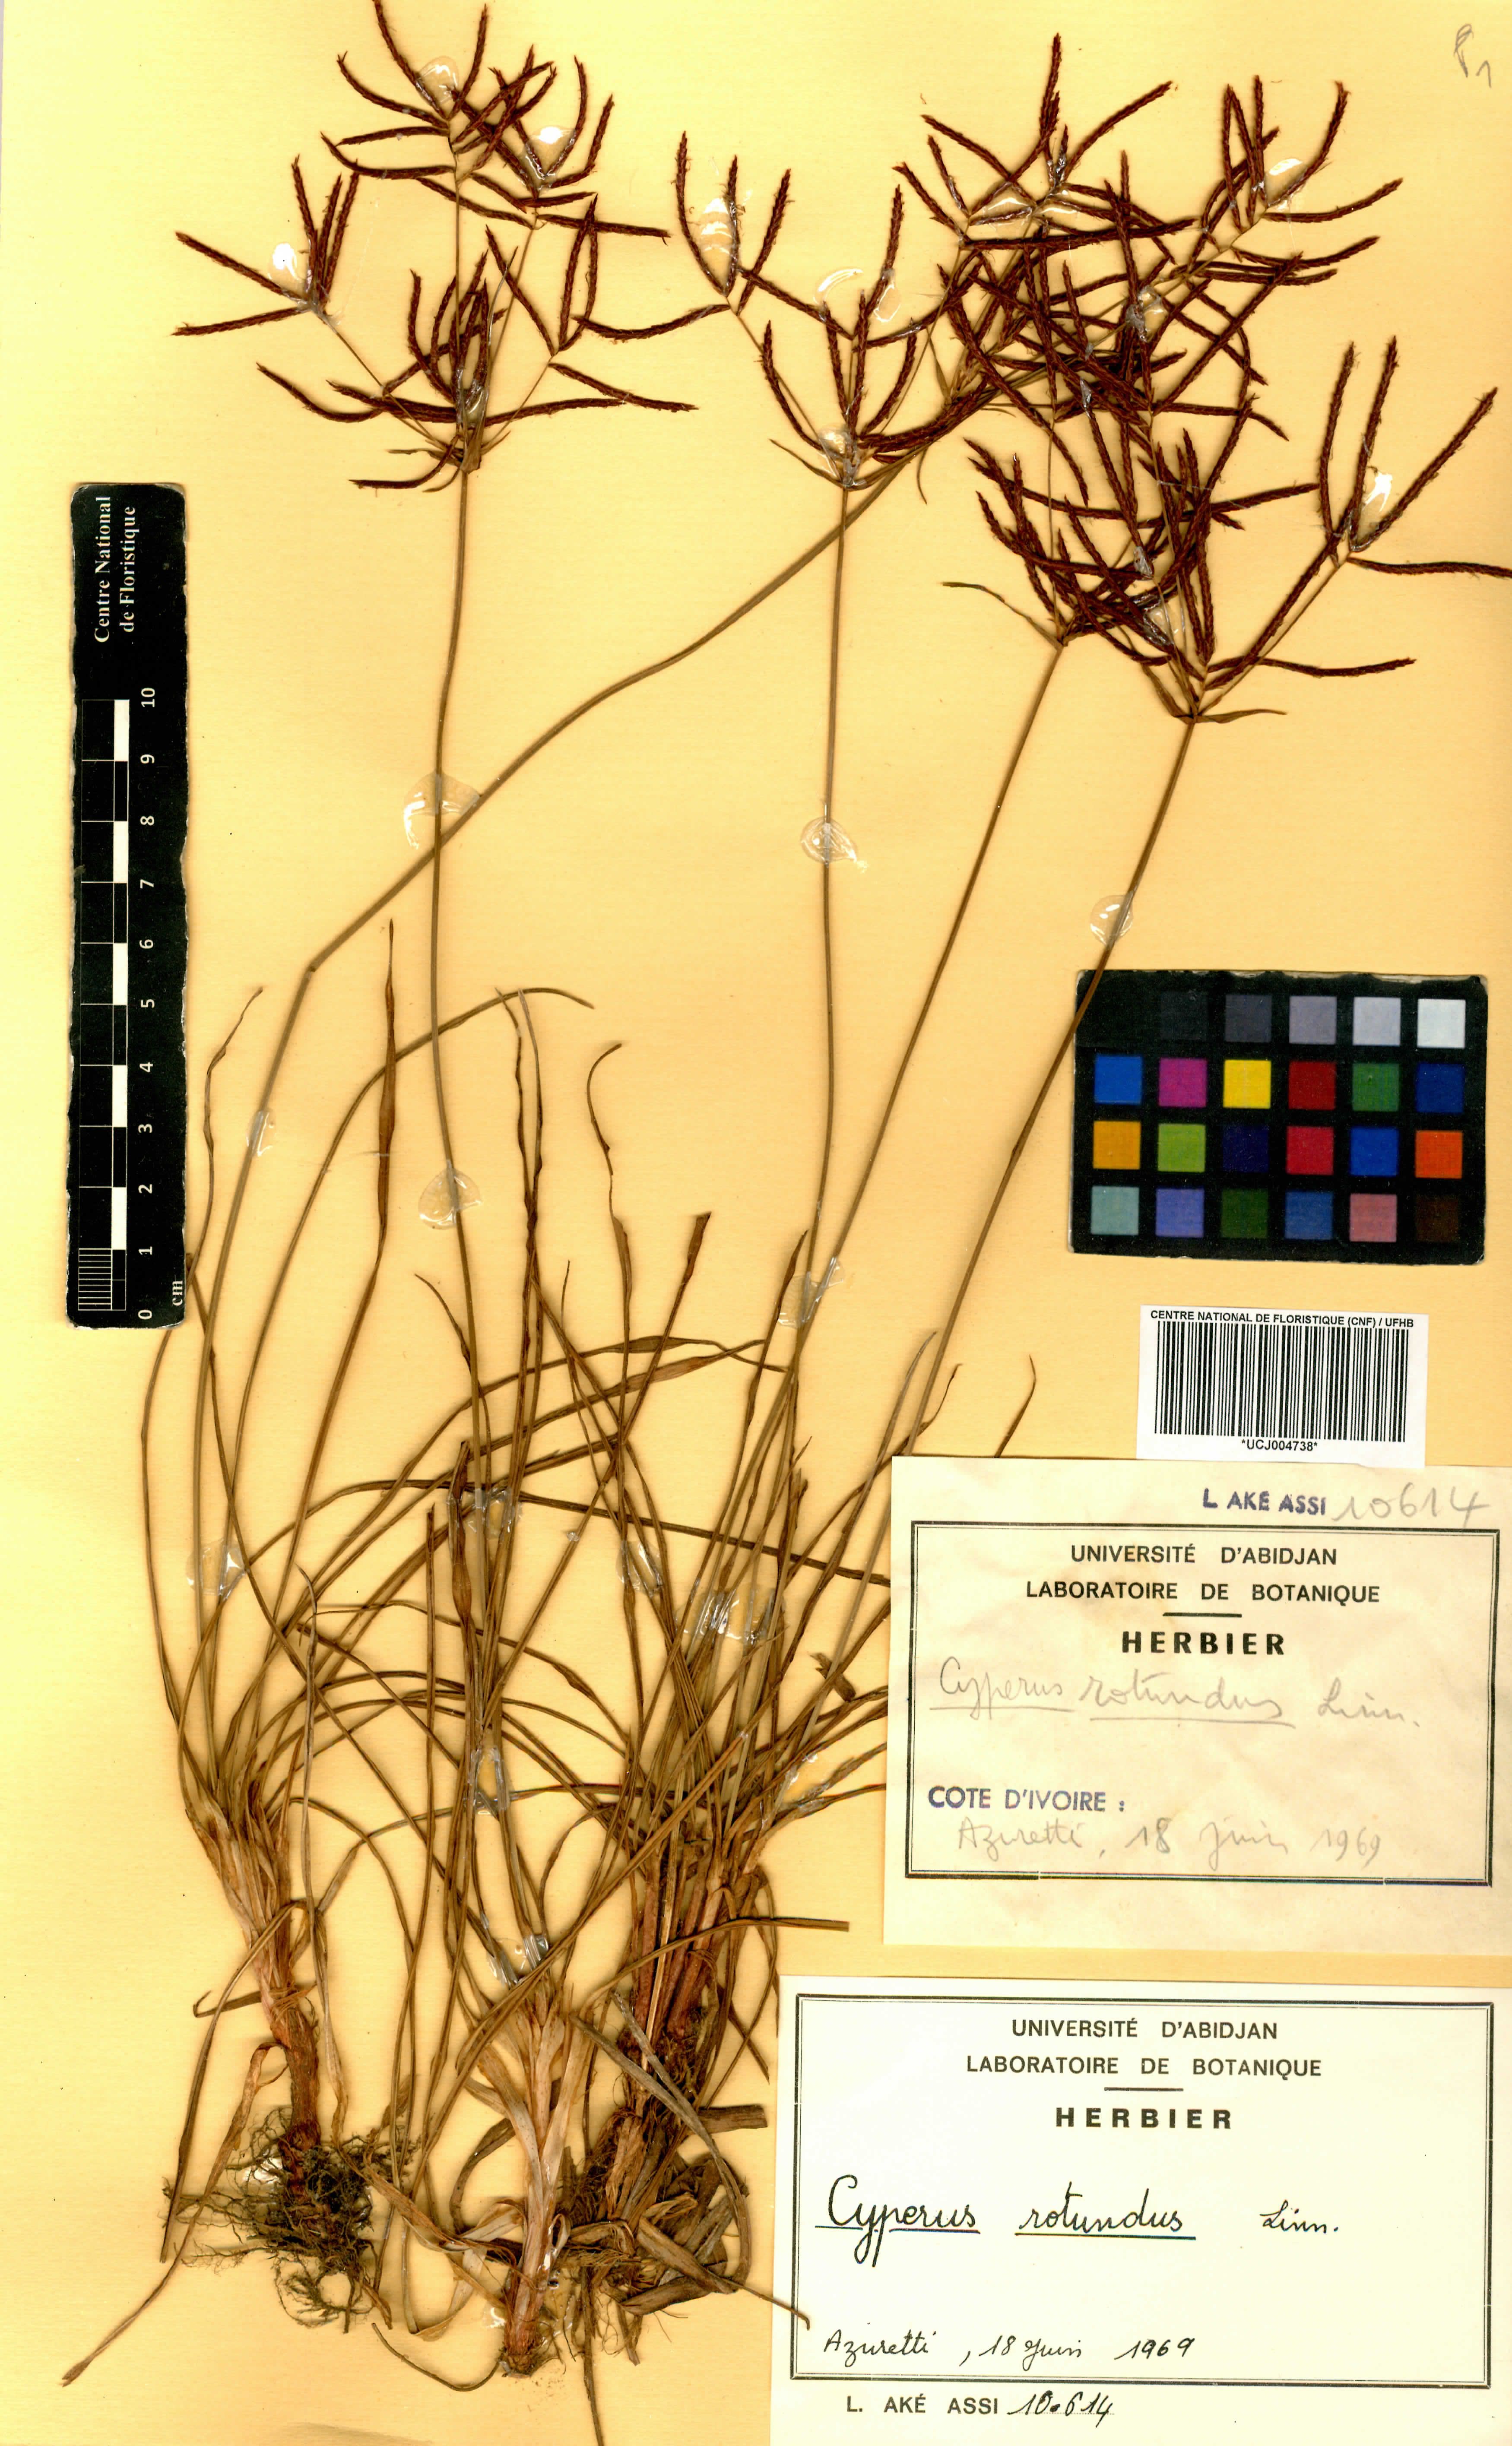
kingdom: Plantae
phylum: Tracheophyta
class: Liliopsida
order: Poales
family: Cyperaceae
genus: Cyperus
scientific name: Cyperus rotundus
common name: Nutgrass
